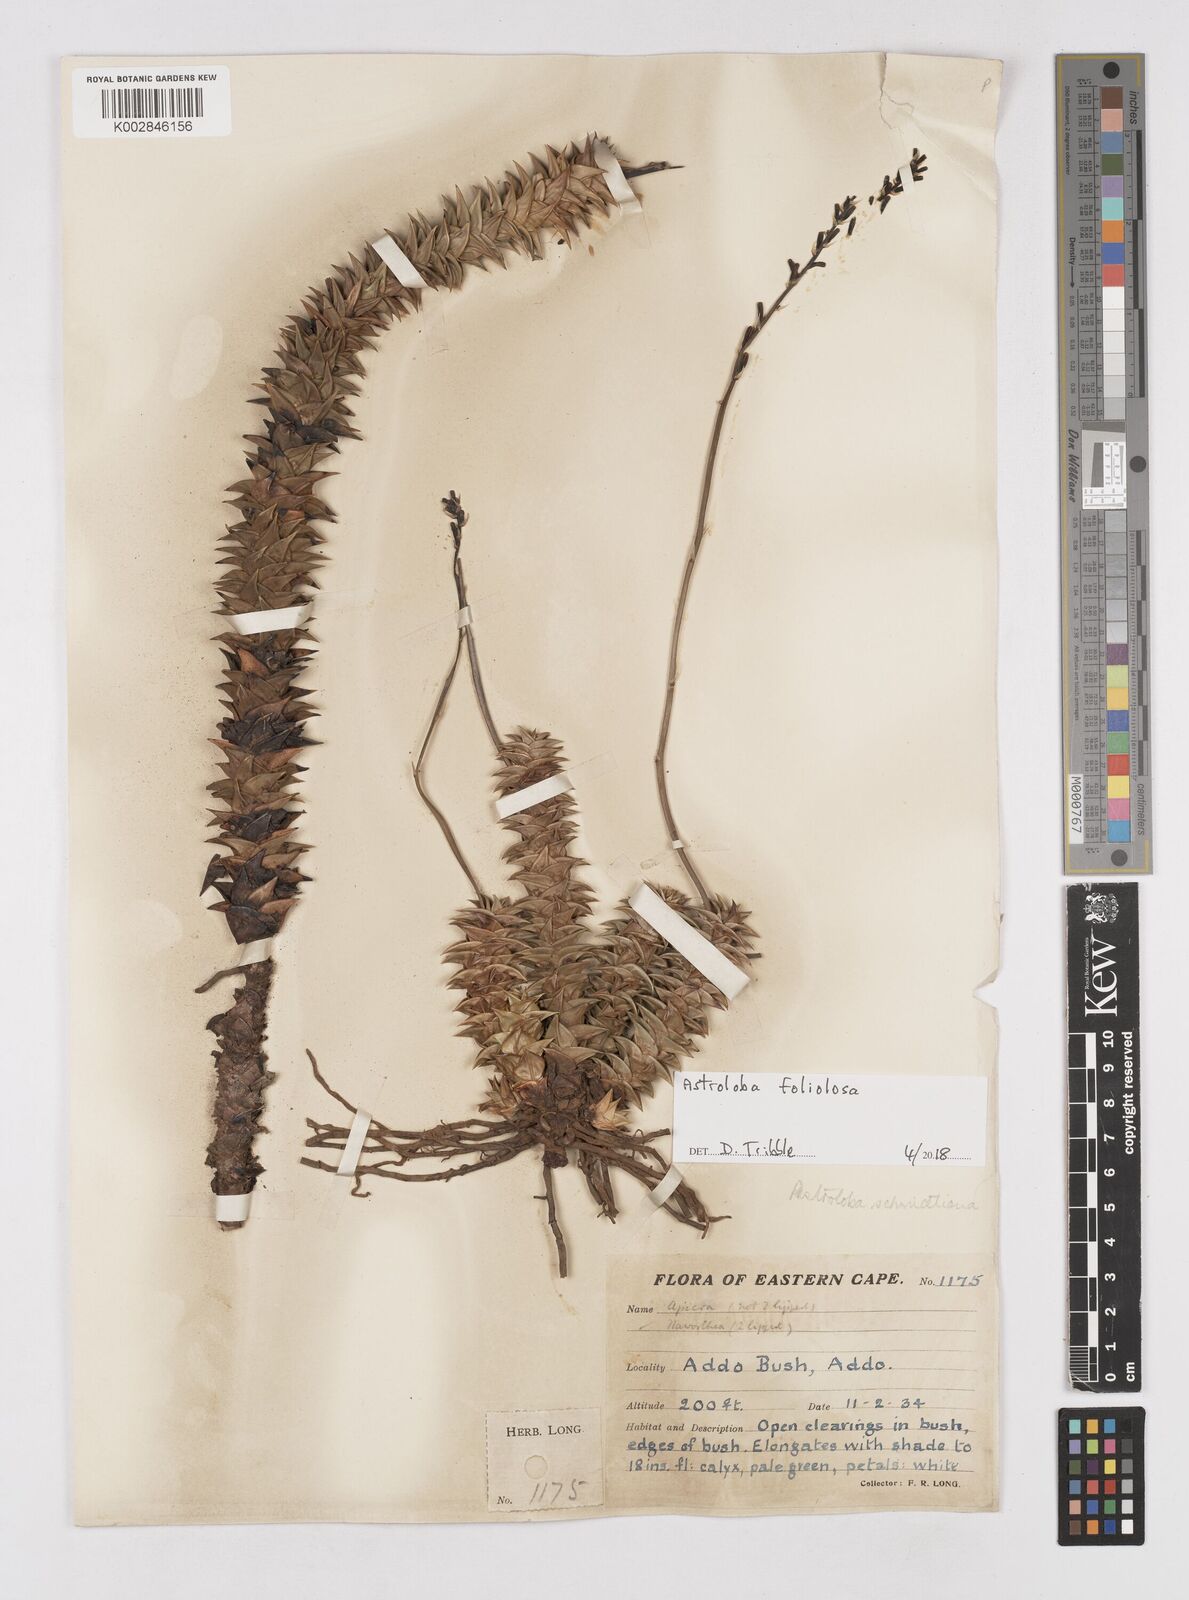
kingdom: Plantae
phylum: Tracheophyta
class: Liliopsida
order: Asparagales
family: Asphodelaceae
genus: Astroloba
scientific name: Astroloba foliolosa
